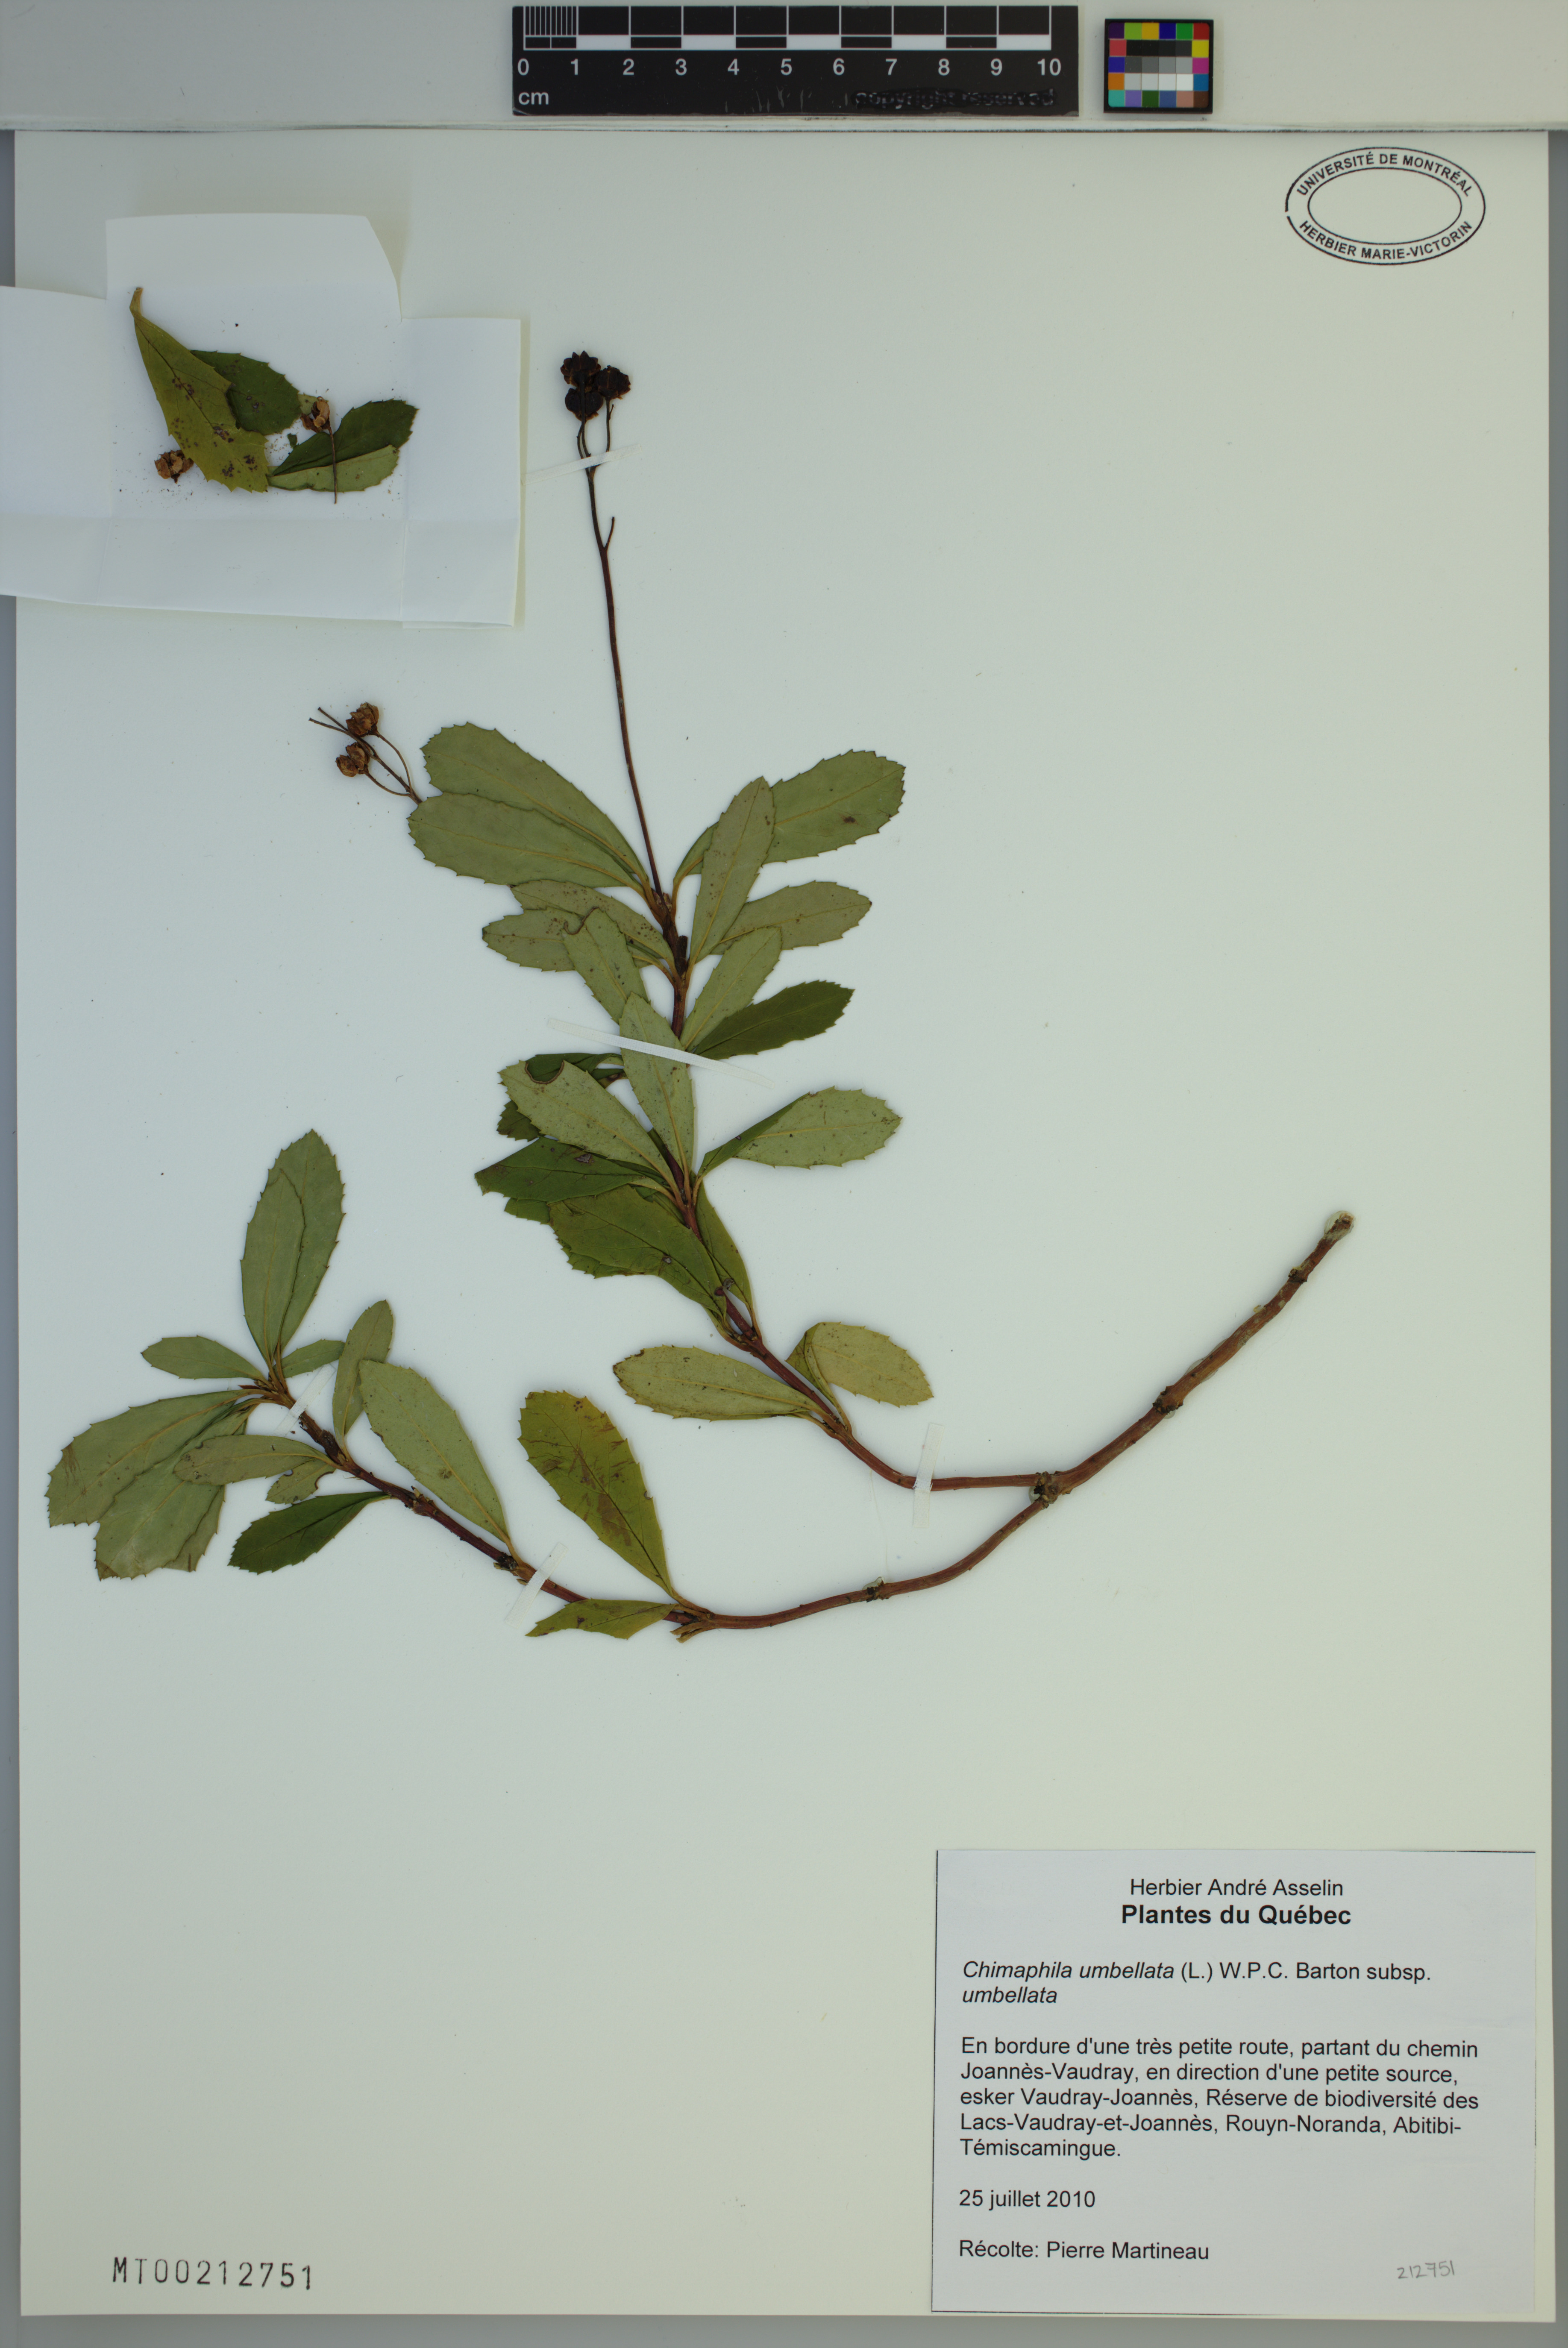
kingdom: Plantae
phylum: Tracheophyta
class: Magnoliopsida
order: Ericales
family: Ericaceae
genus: Chimaphila
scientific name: Chimaphila umbellata
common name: Pipsissewa
